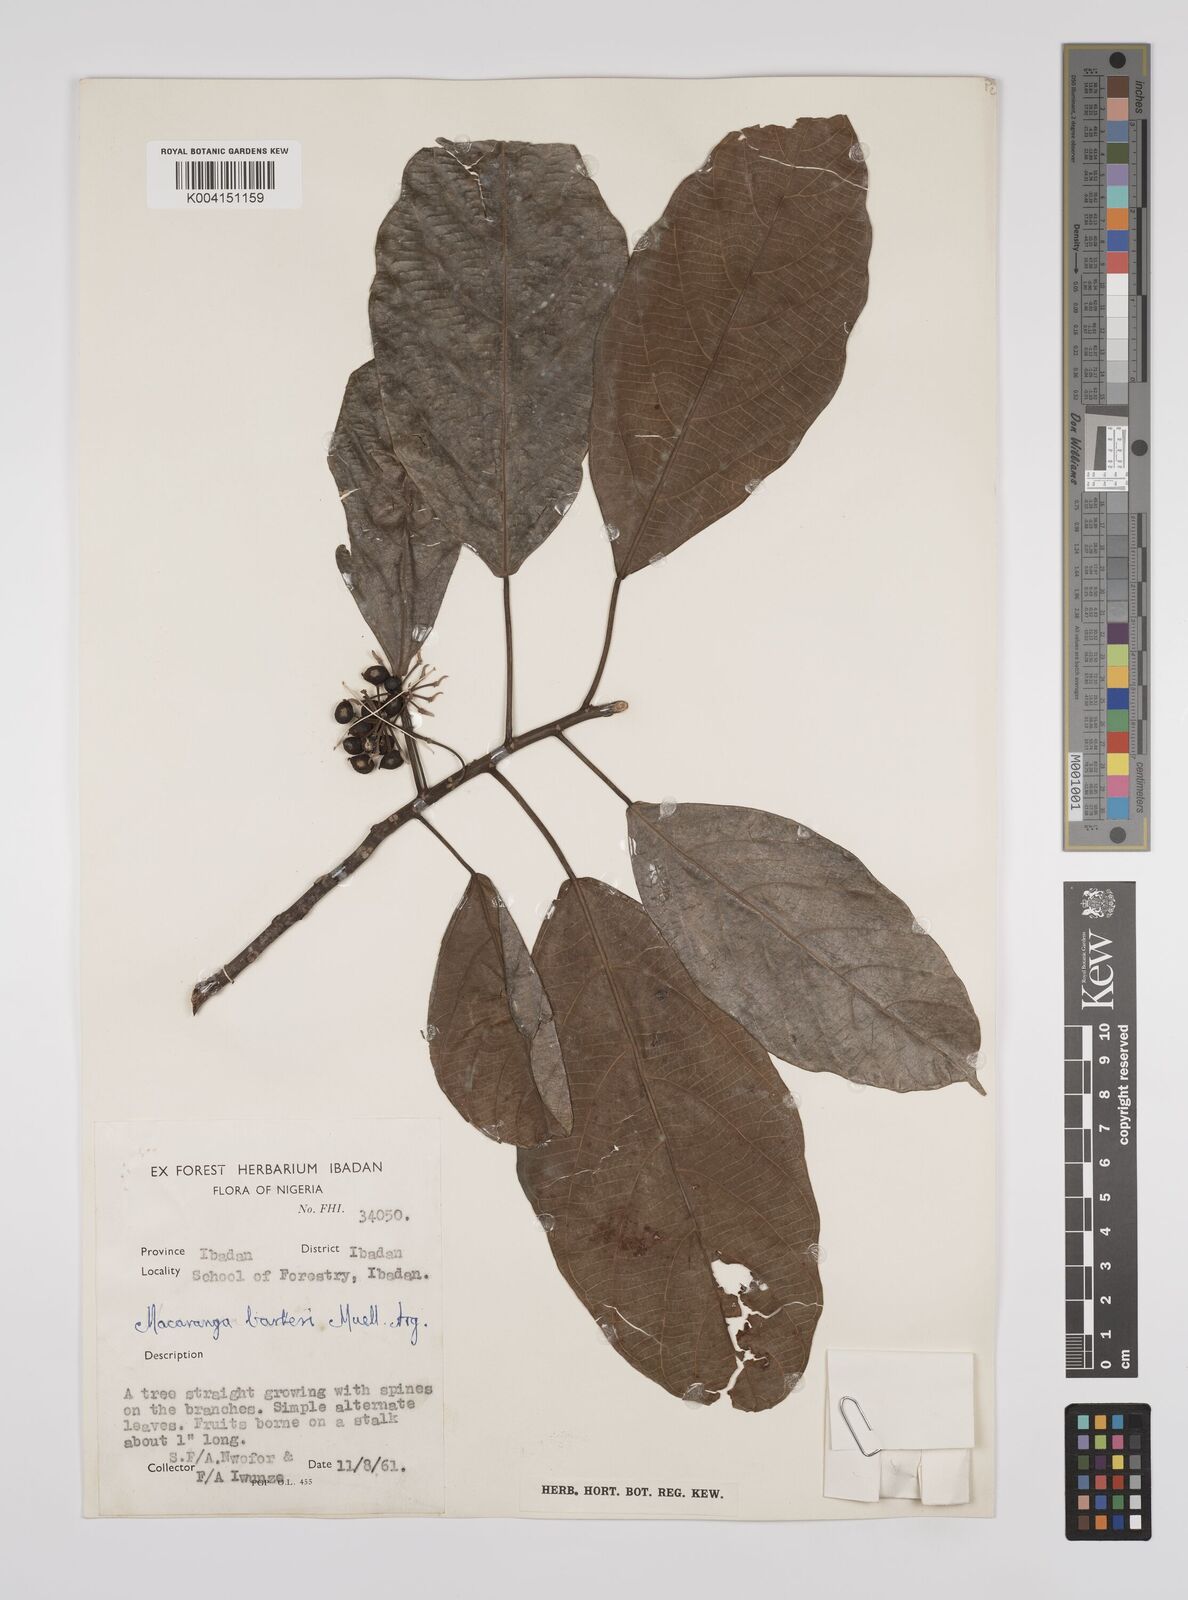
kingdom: Plantae
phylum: Tracheophyta
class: Magnoliopsida
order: Malpighiales
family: Euphorbiaceae
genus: Macaranga
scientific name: Macaranga barteri
